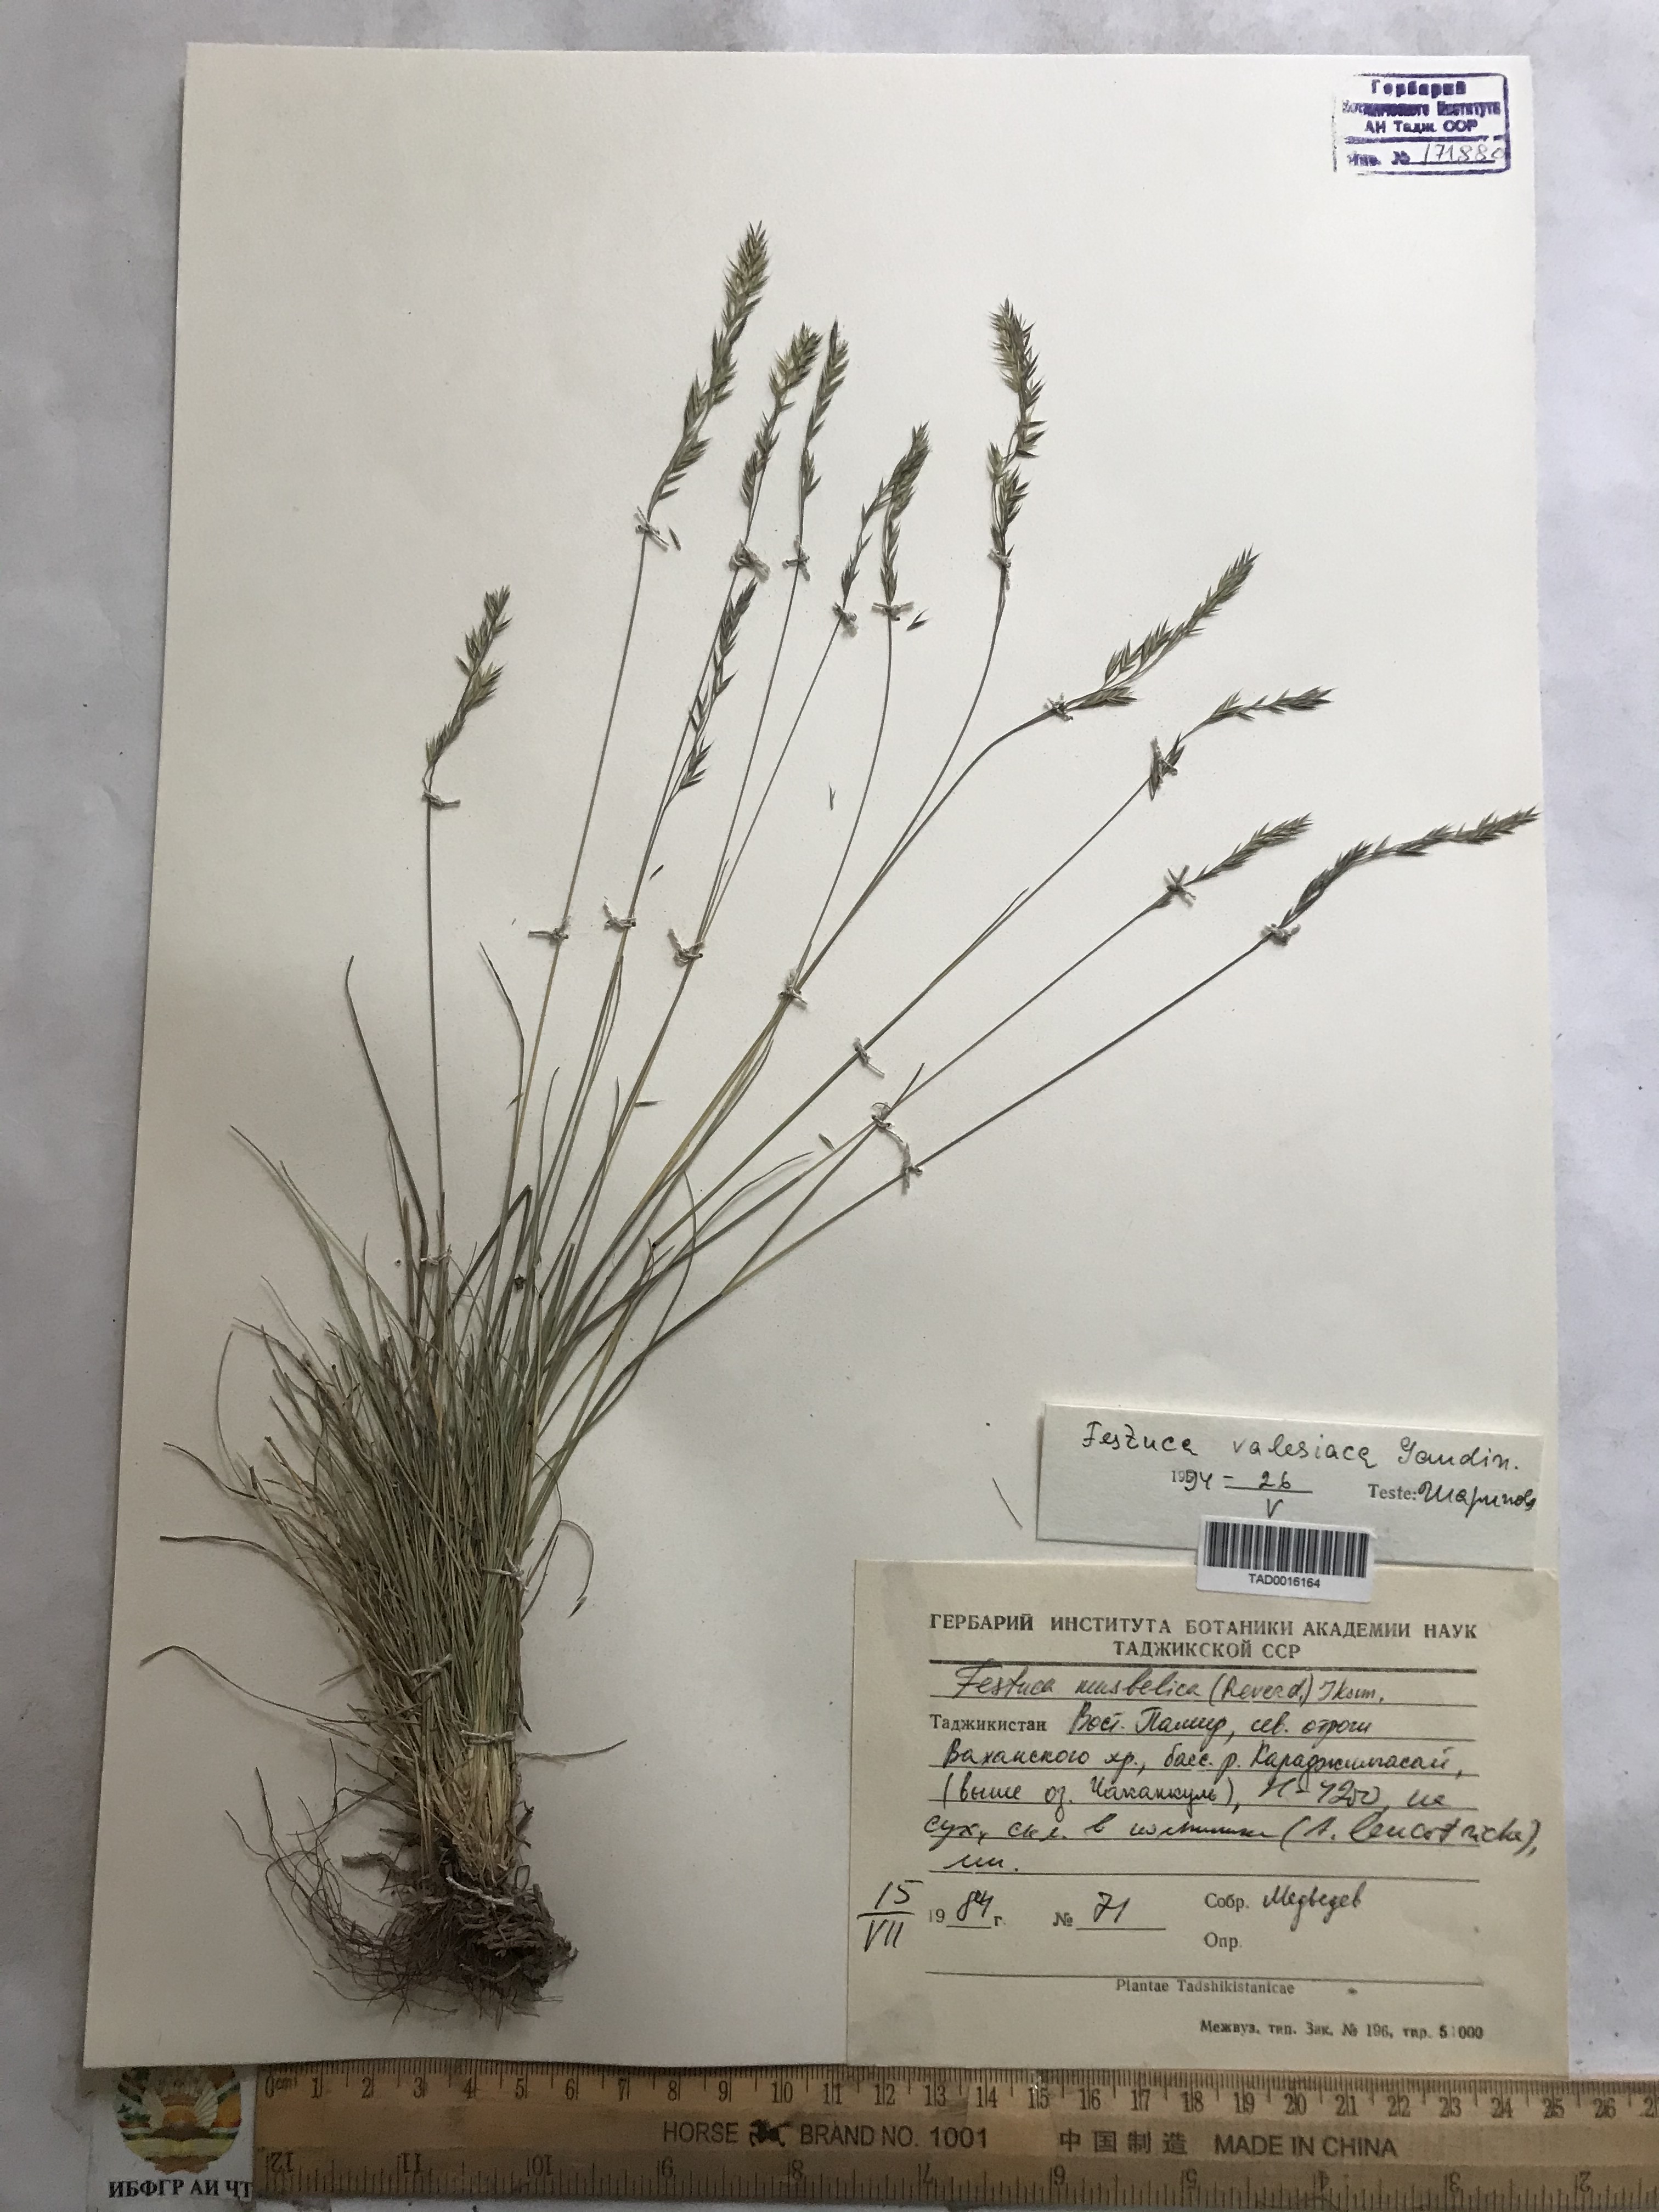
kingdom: Plantae
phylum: Tracheophyta
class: Liliopsida
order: Poales
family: Poaceae
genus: Festuca
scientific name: Festuca valesiaca
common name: Volga fescue
